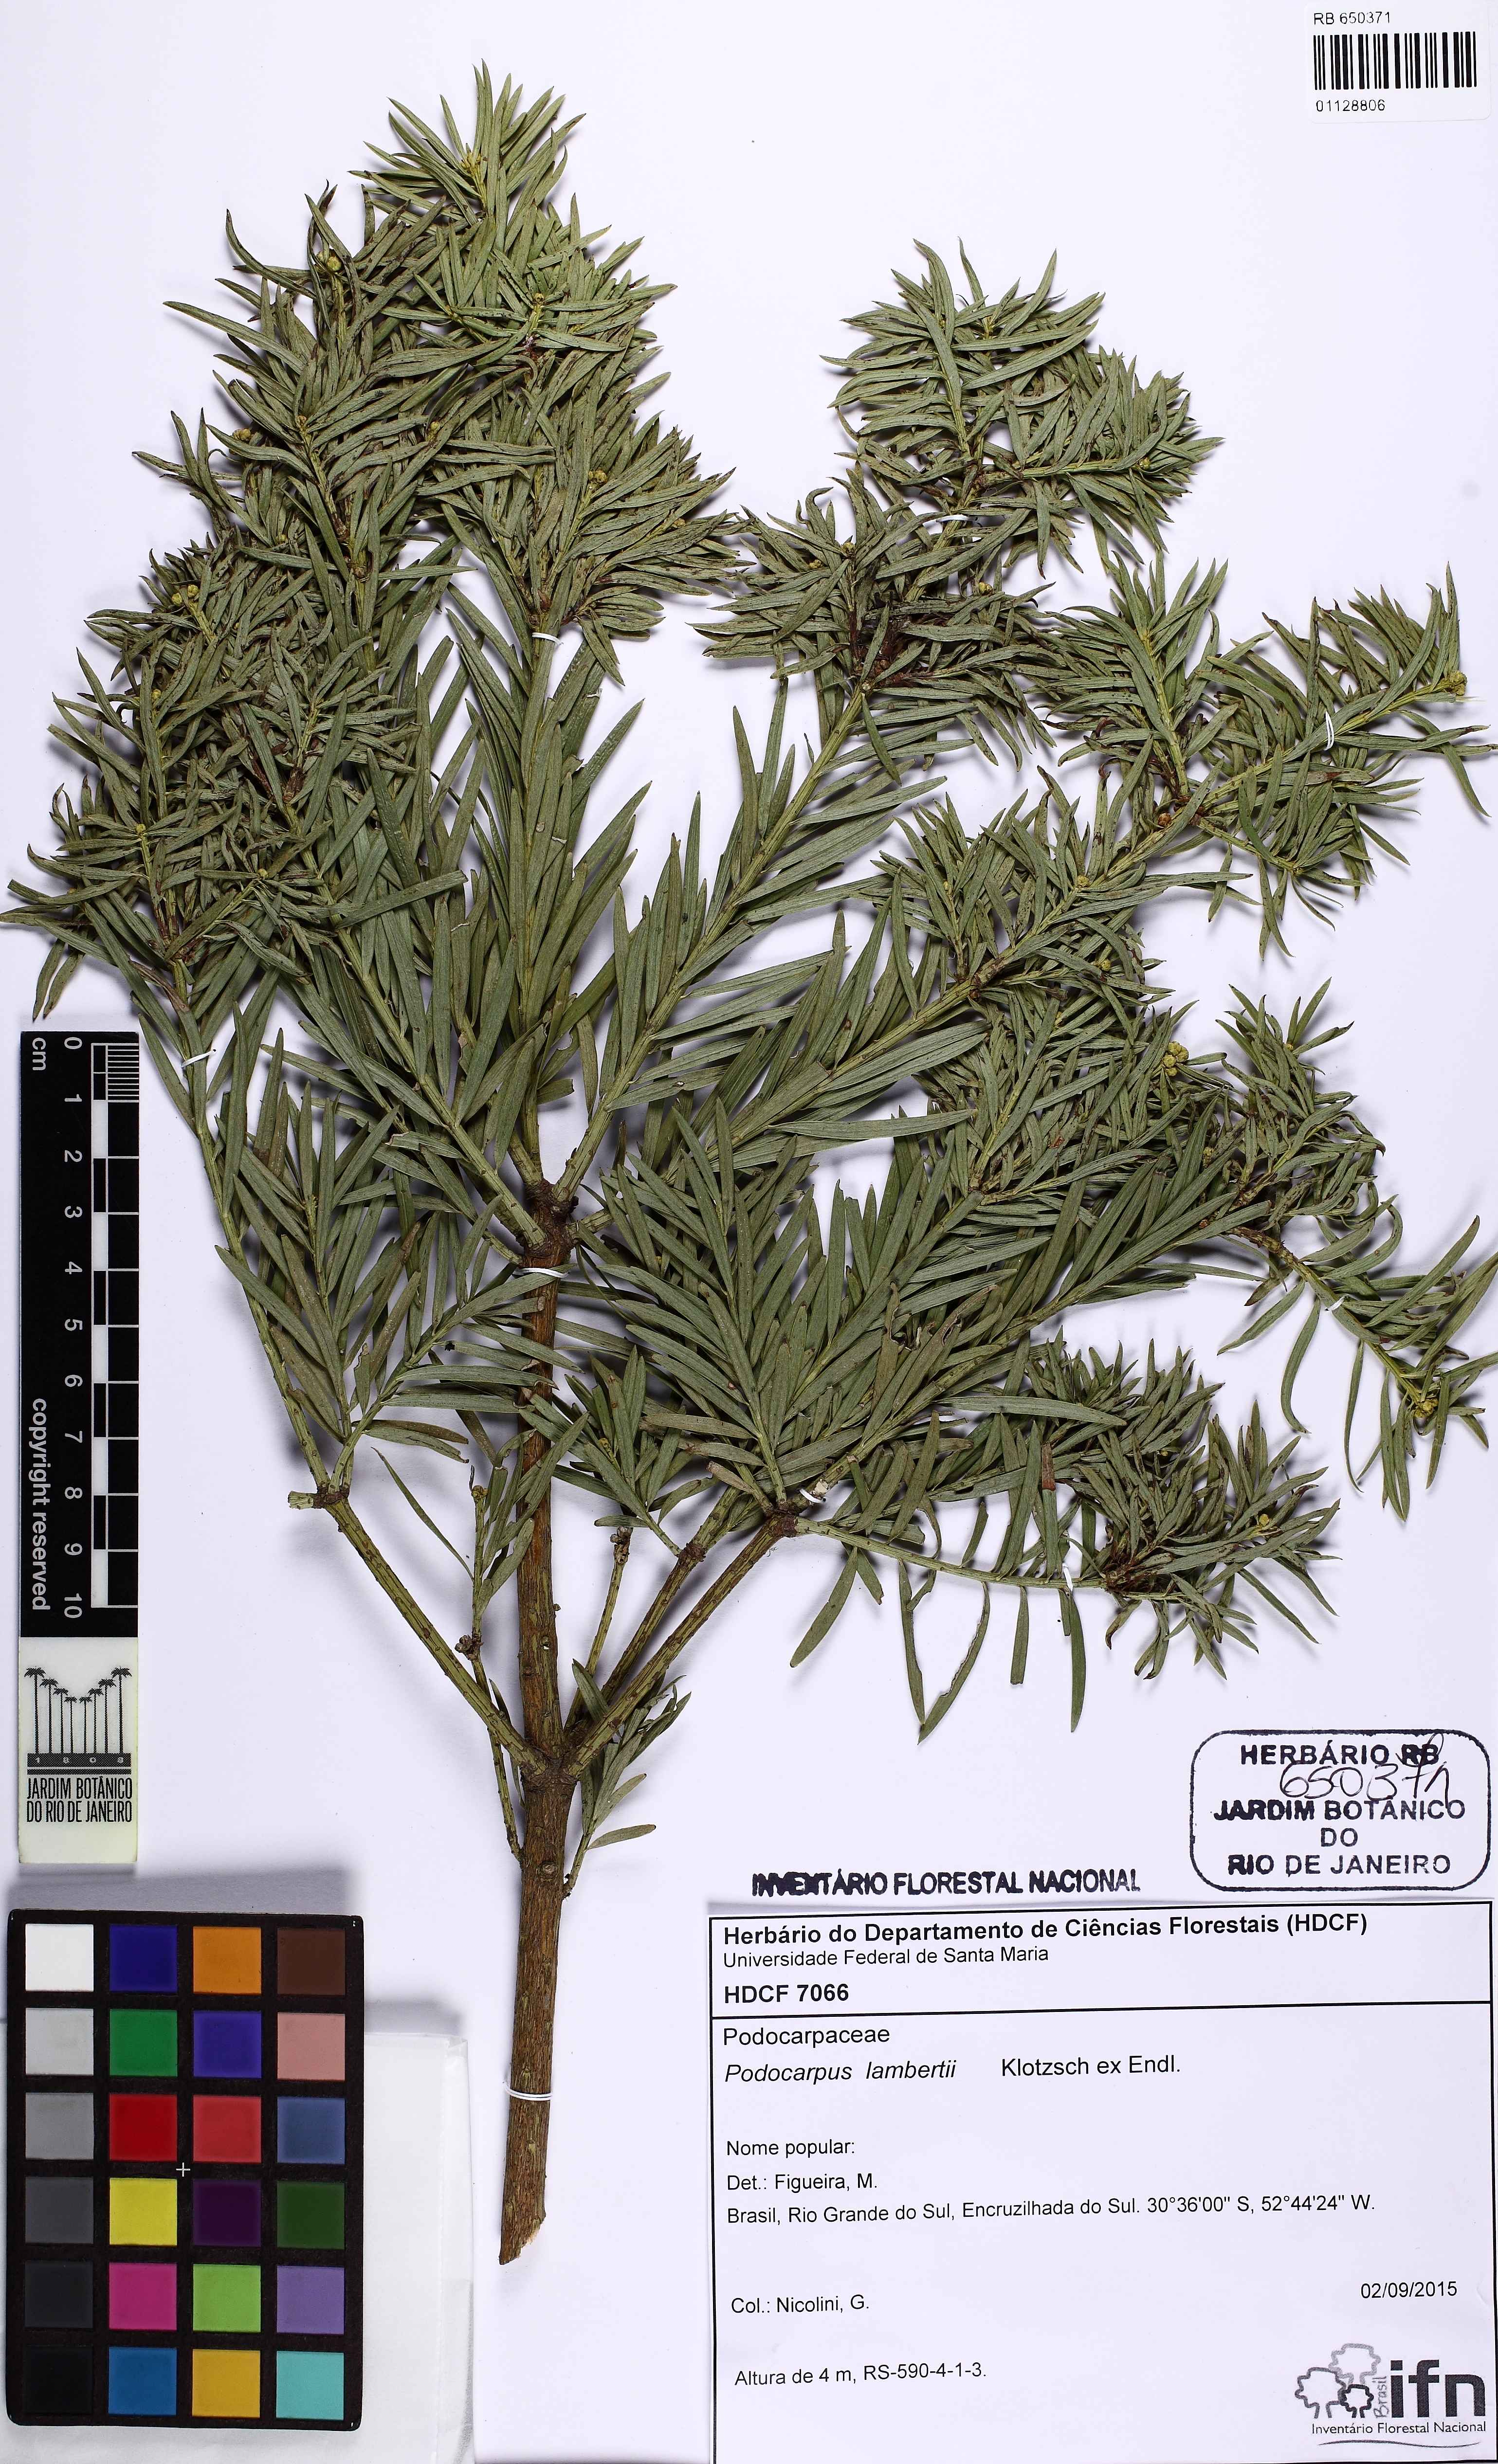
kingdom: Plantae
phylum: Tracheophyta
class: Pinopsida
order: Pinales
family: Podocarpaceae
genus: Podocarpus
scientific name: Podocarpus lambertii
